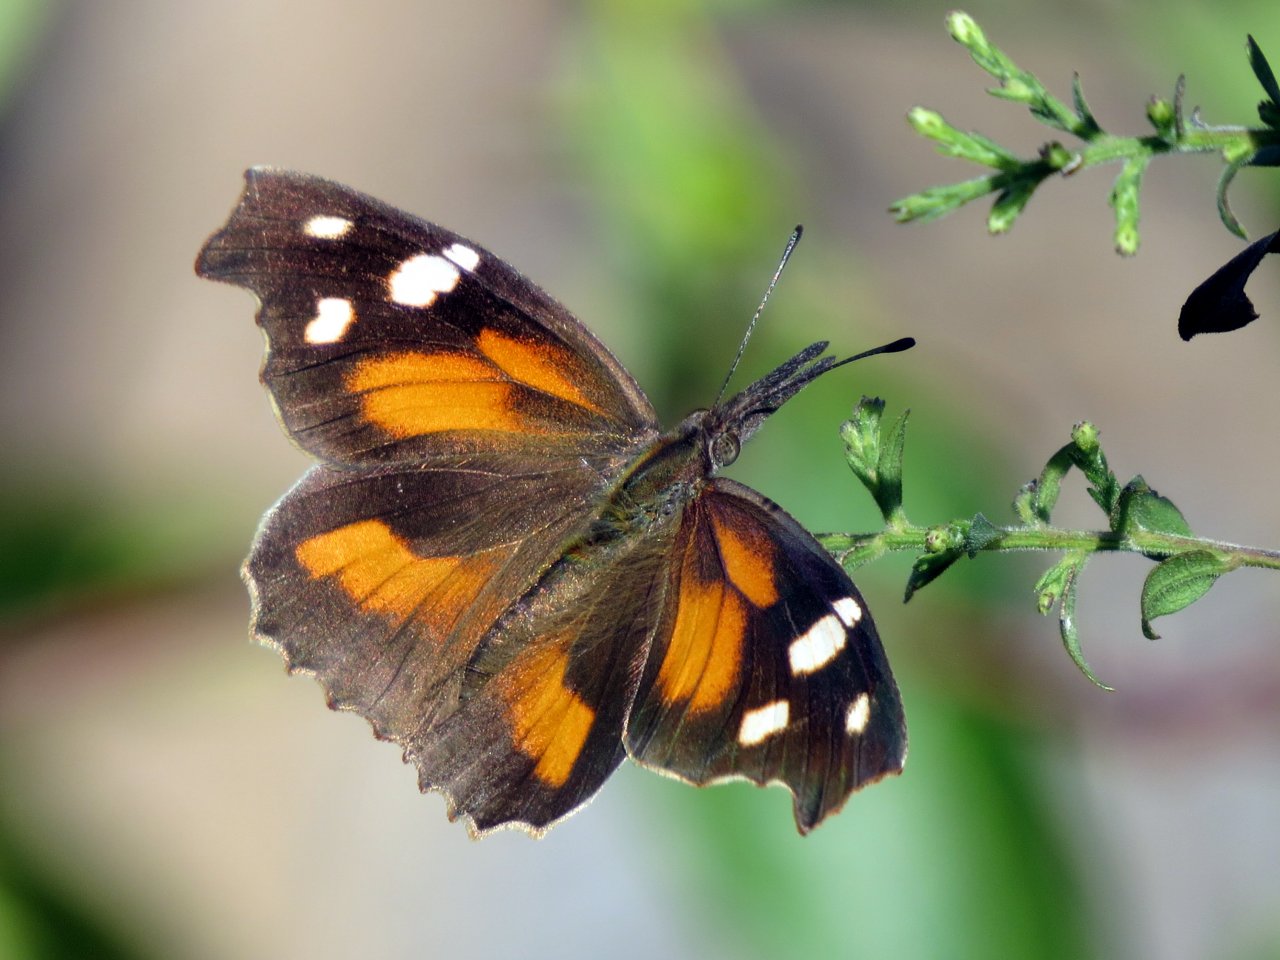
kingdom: Animalia
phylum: Arthropoda
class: Insecta
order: Lepidoptera
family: Nymphalidae
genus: Libytheana
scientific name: Libytheana carinenta
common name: American Snout
